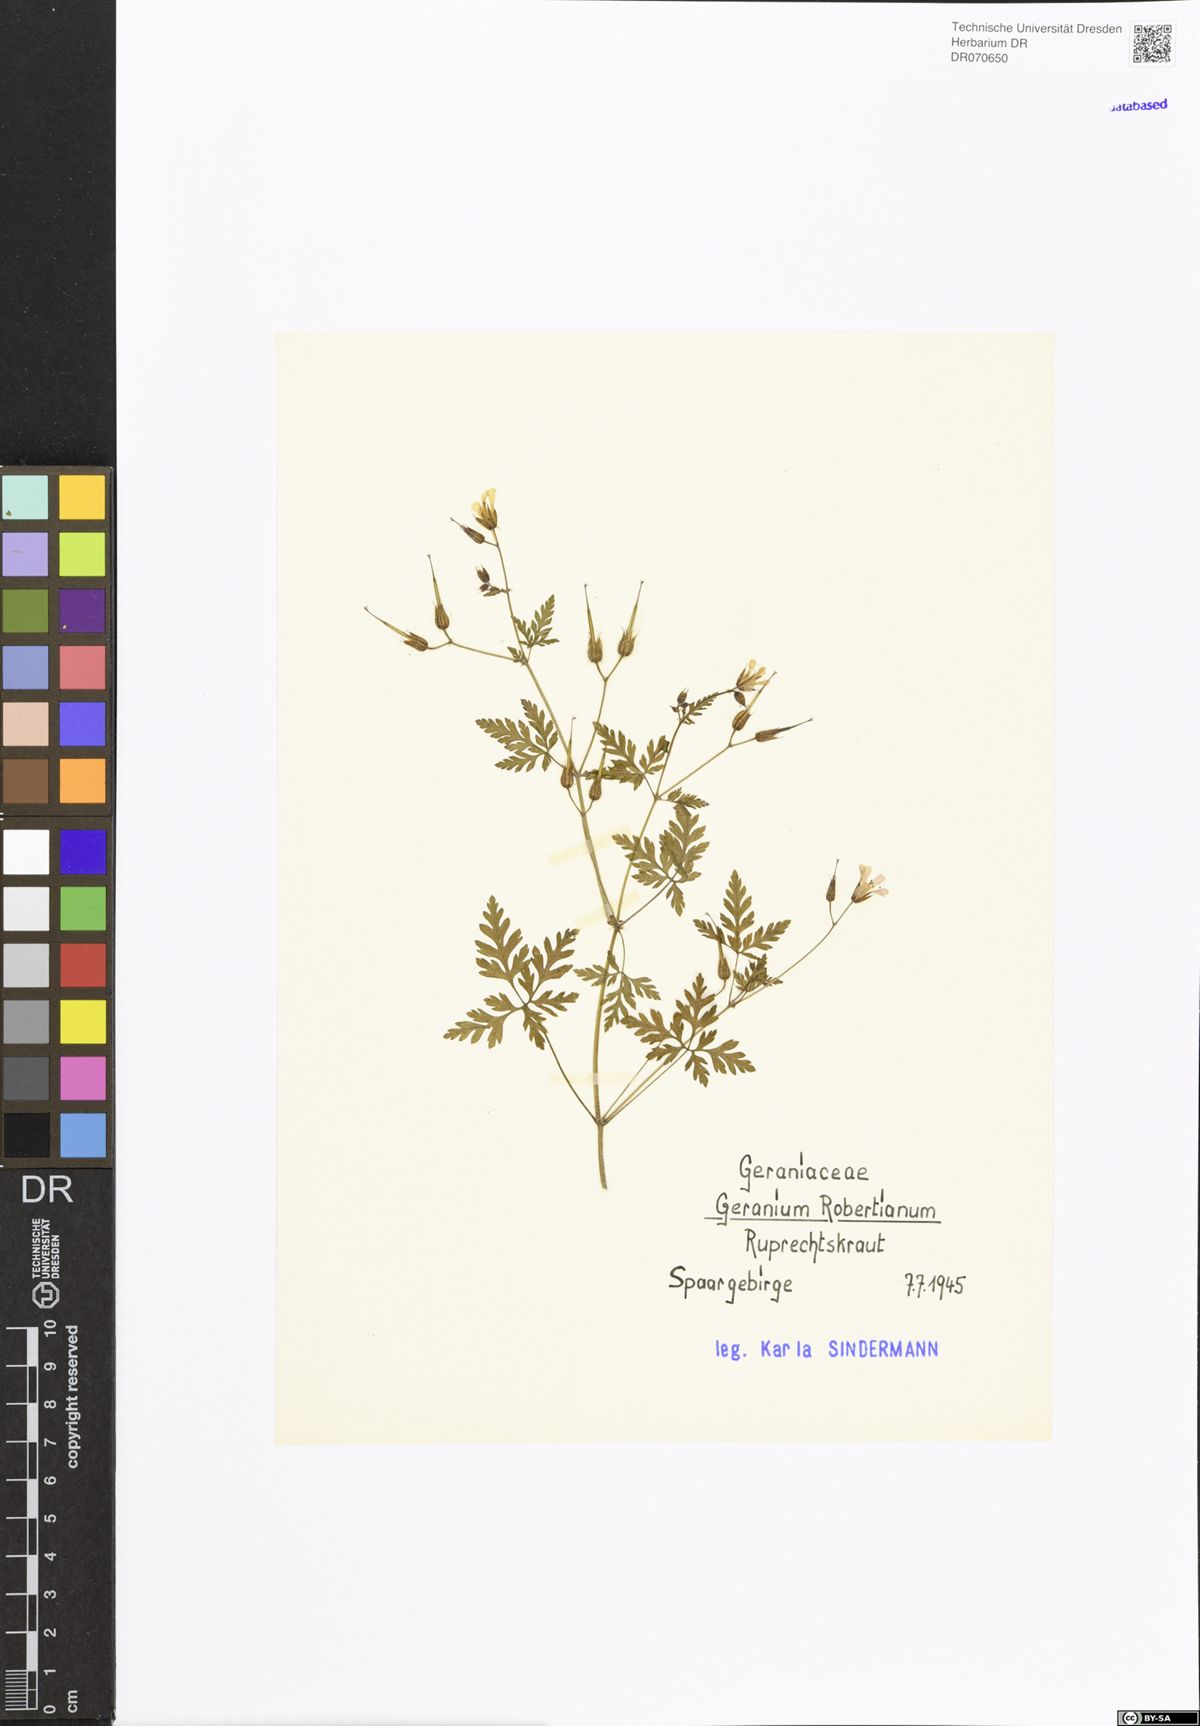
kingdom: Plantae
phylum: Tracheophyta
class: Magnoliopsida
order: Geraniales
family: Geraniaceae
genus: Geranium
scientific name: Geranium robertianum
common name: Herb-robert
